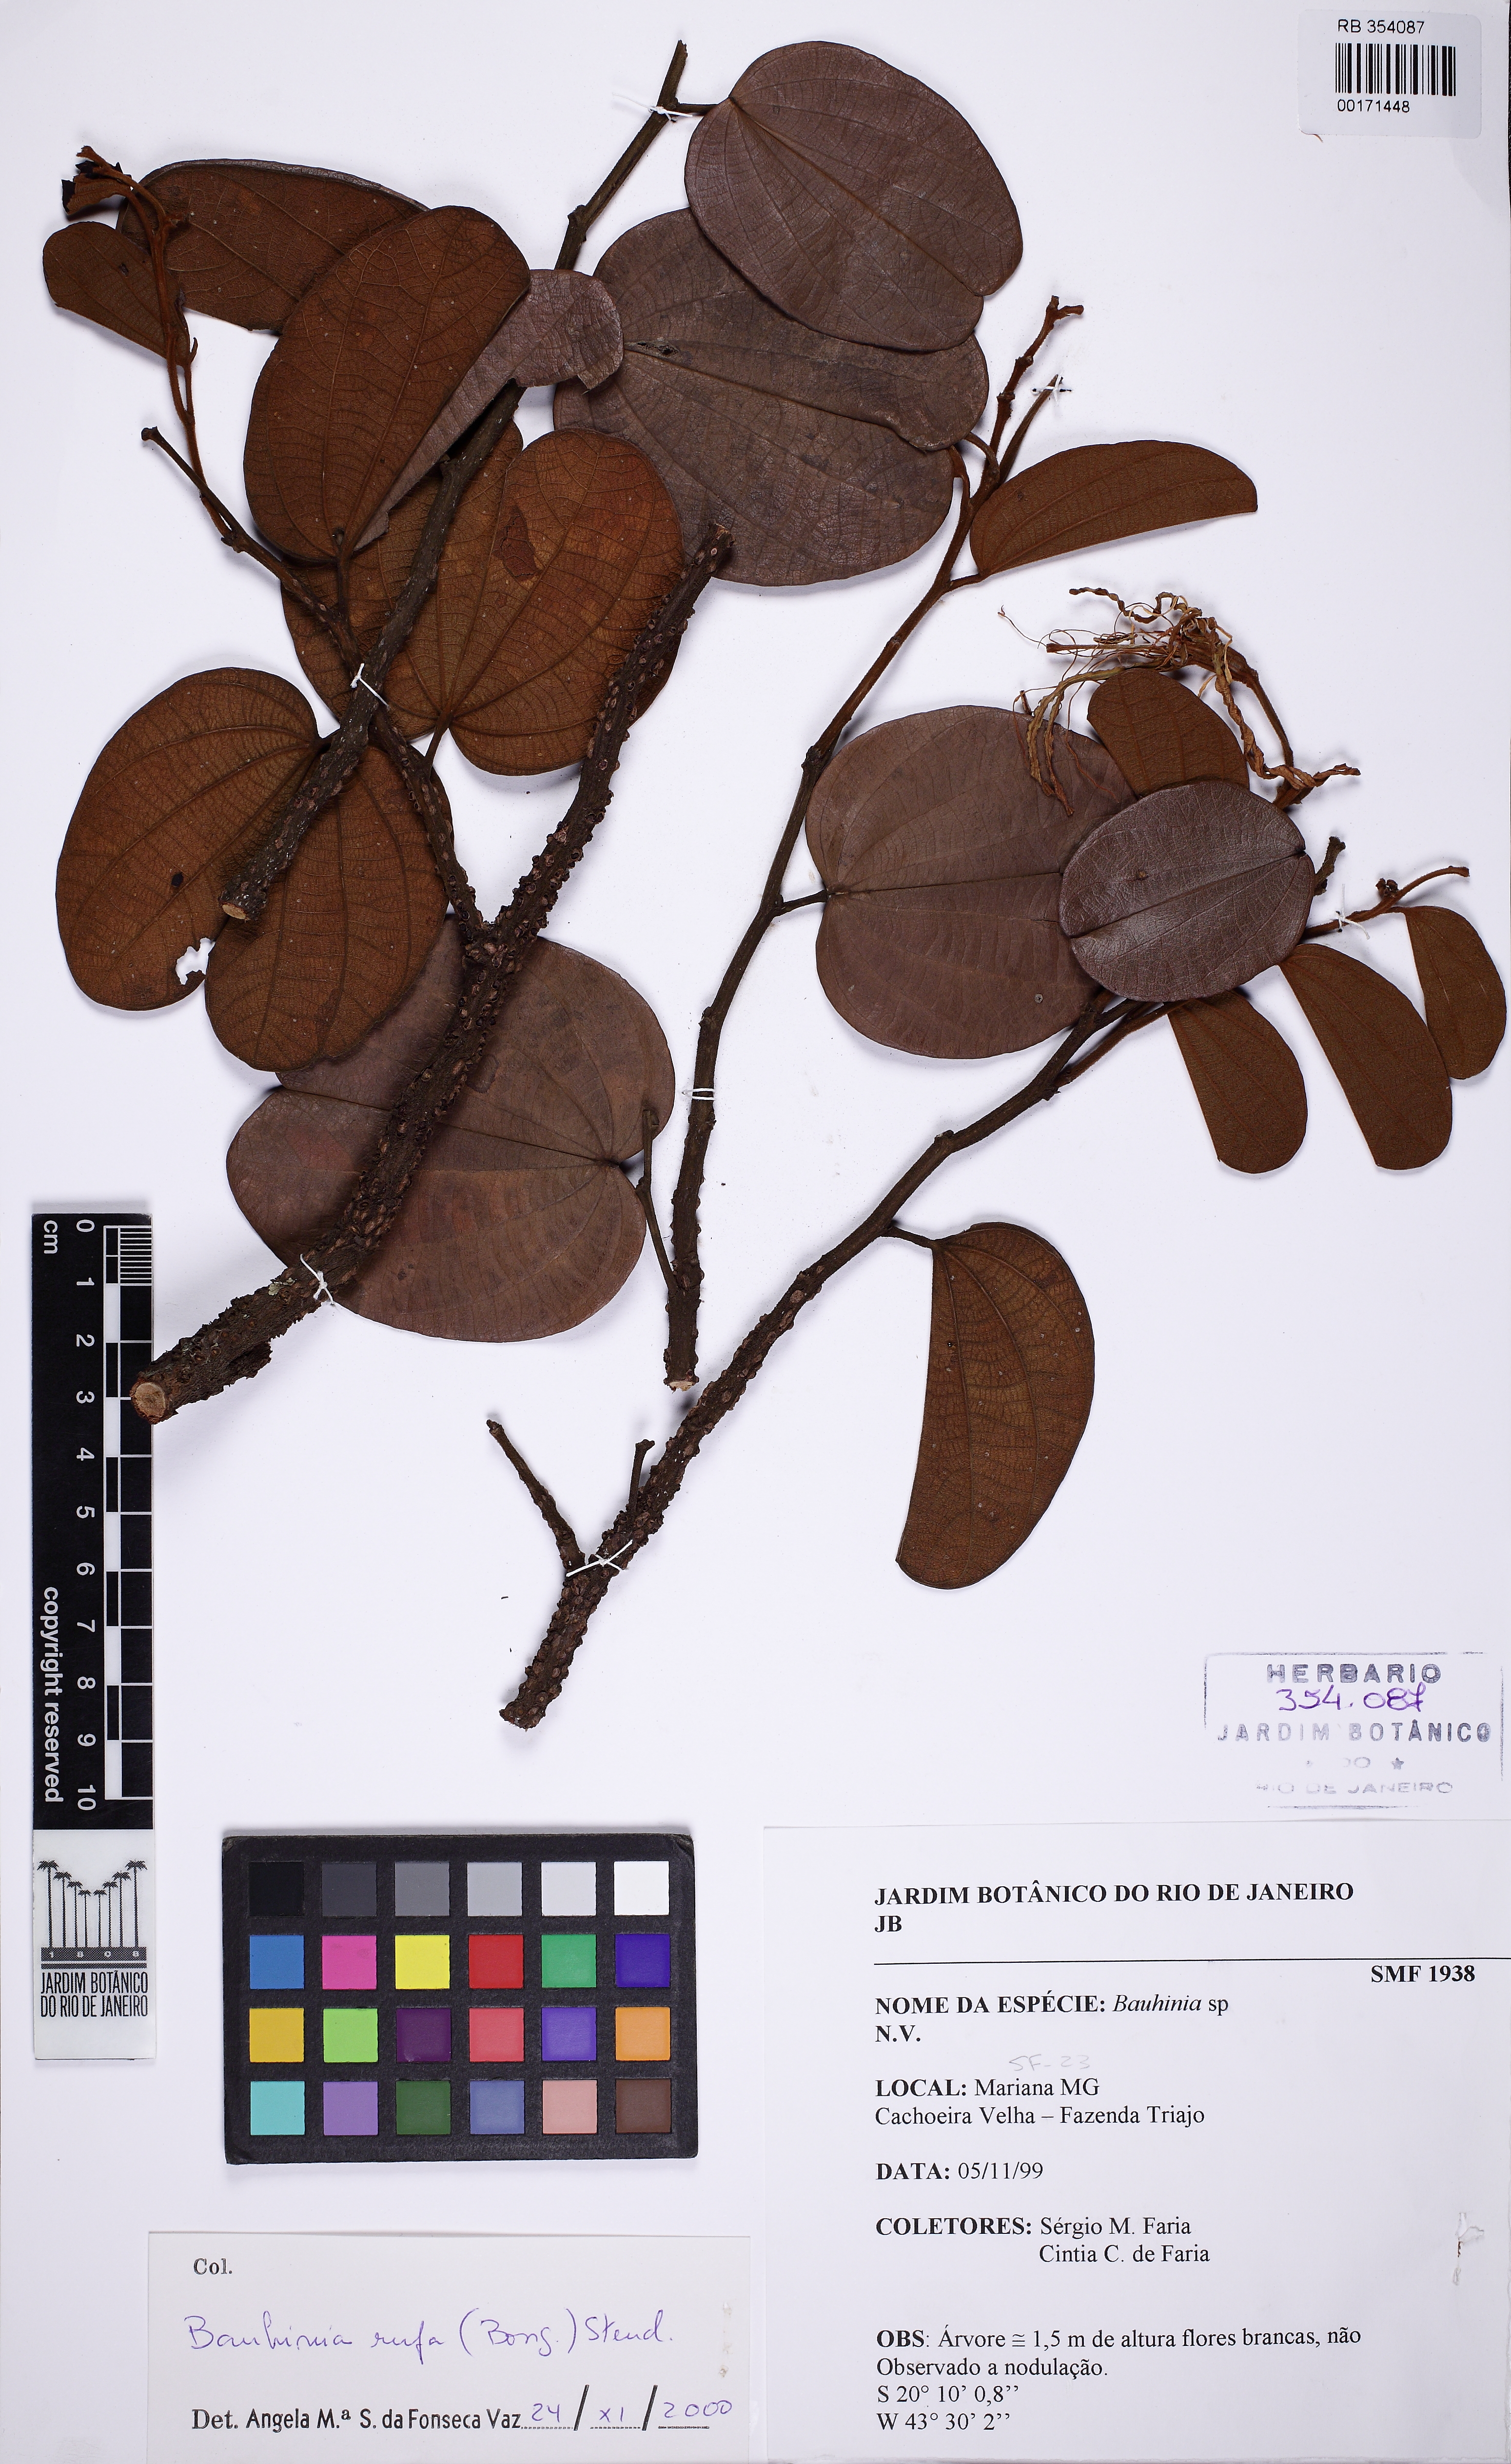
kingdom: Plantae
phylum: Tracheophyta
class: Magnoliopsida
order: Fabales
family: Fabaceae
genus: Bauhinia
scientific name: Bauhinia rufa
